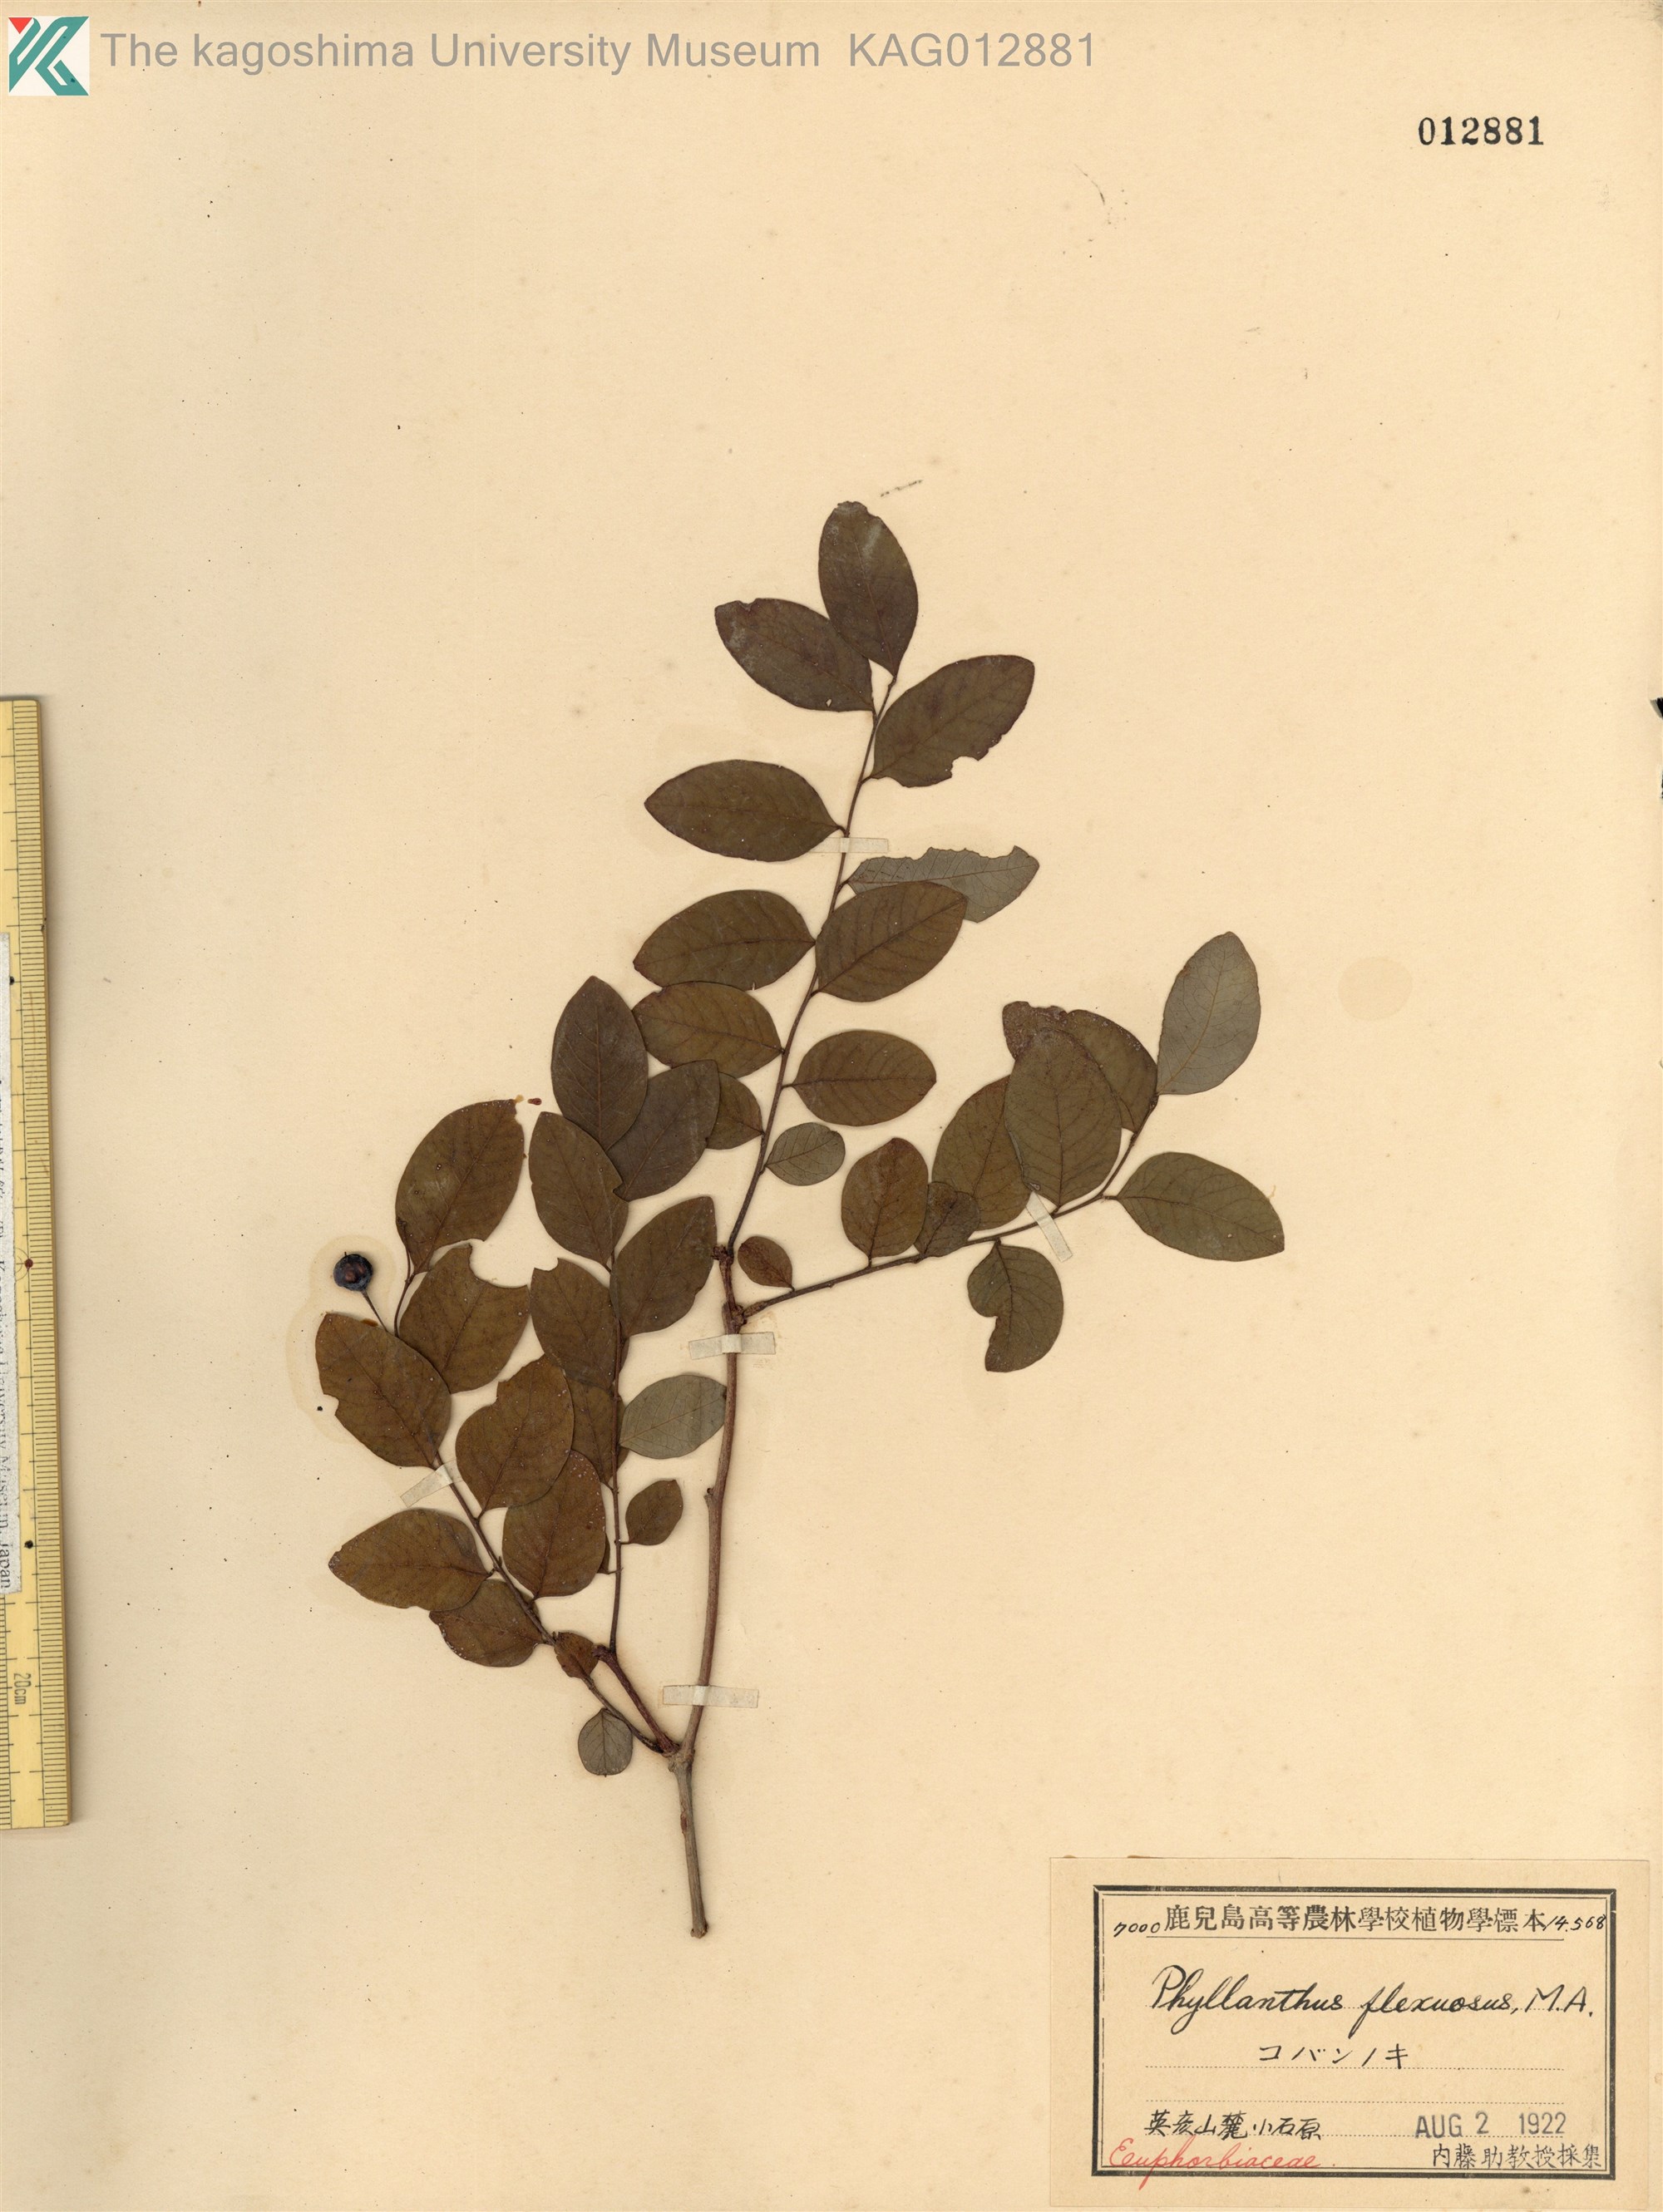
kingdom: Plantae
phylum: Tracheophyta
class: Magnoliopsida
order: Malpighiales
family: Phyllanthaceae
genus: Phyllanthus
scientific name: Phyllanthus flexuosus
